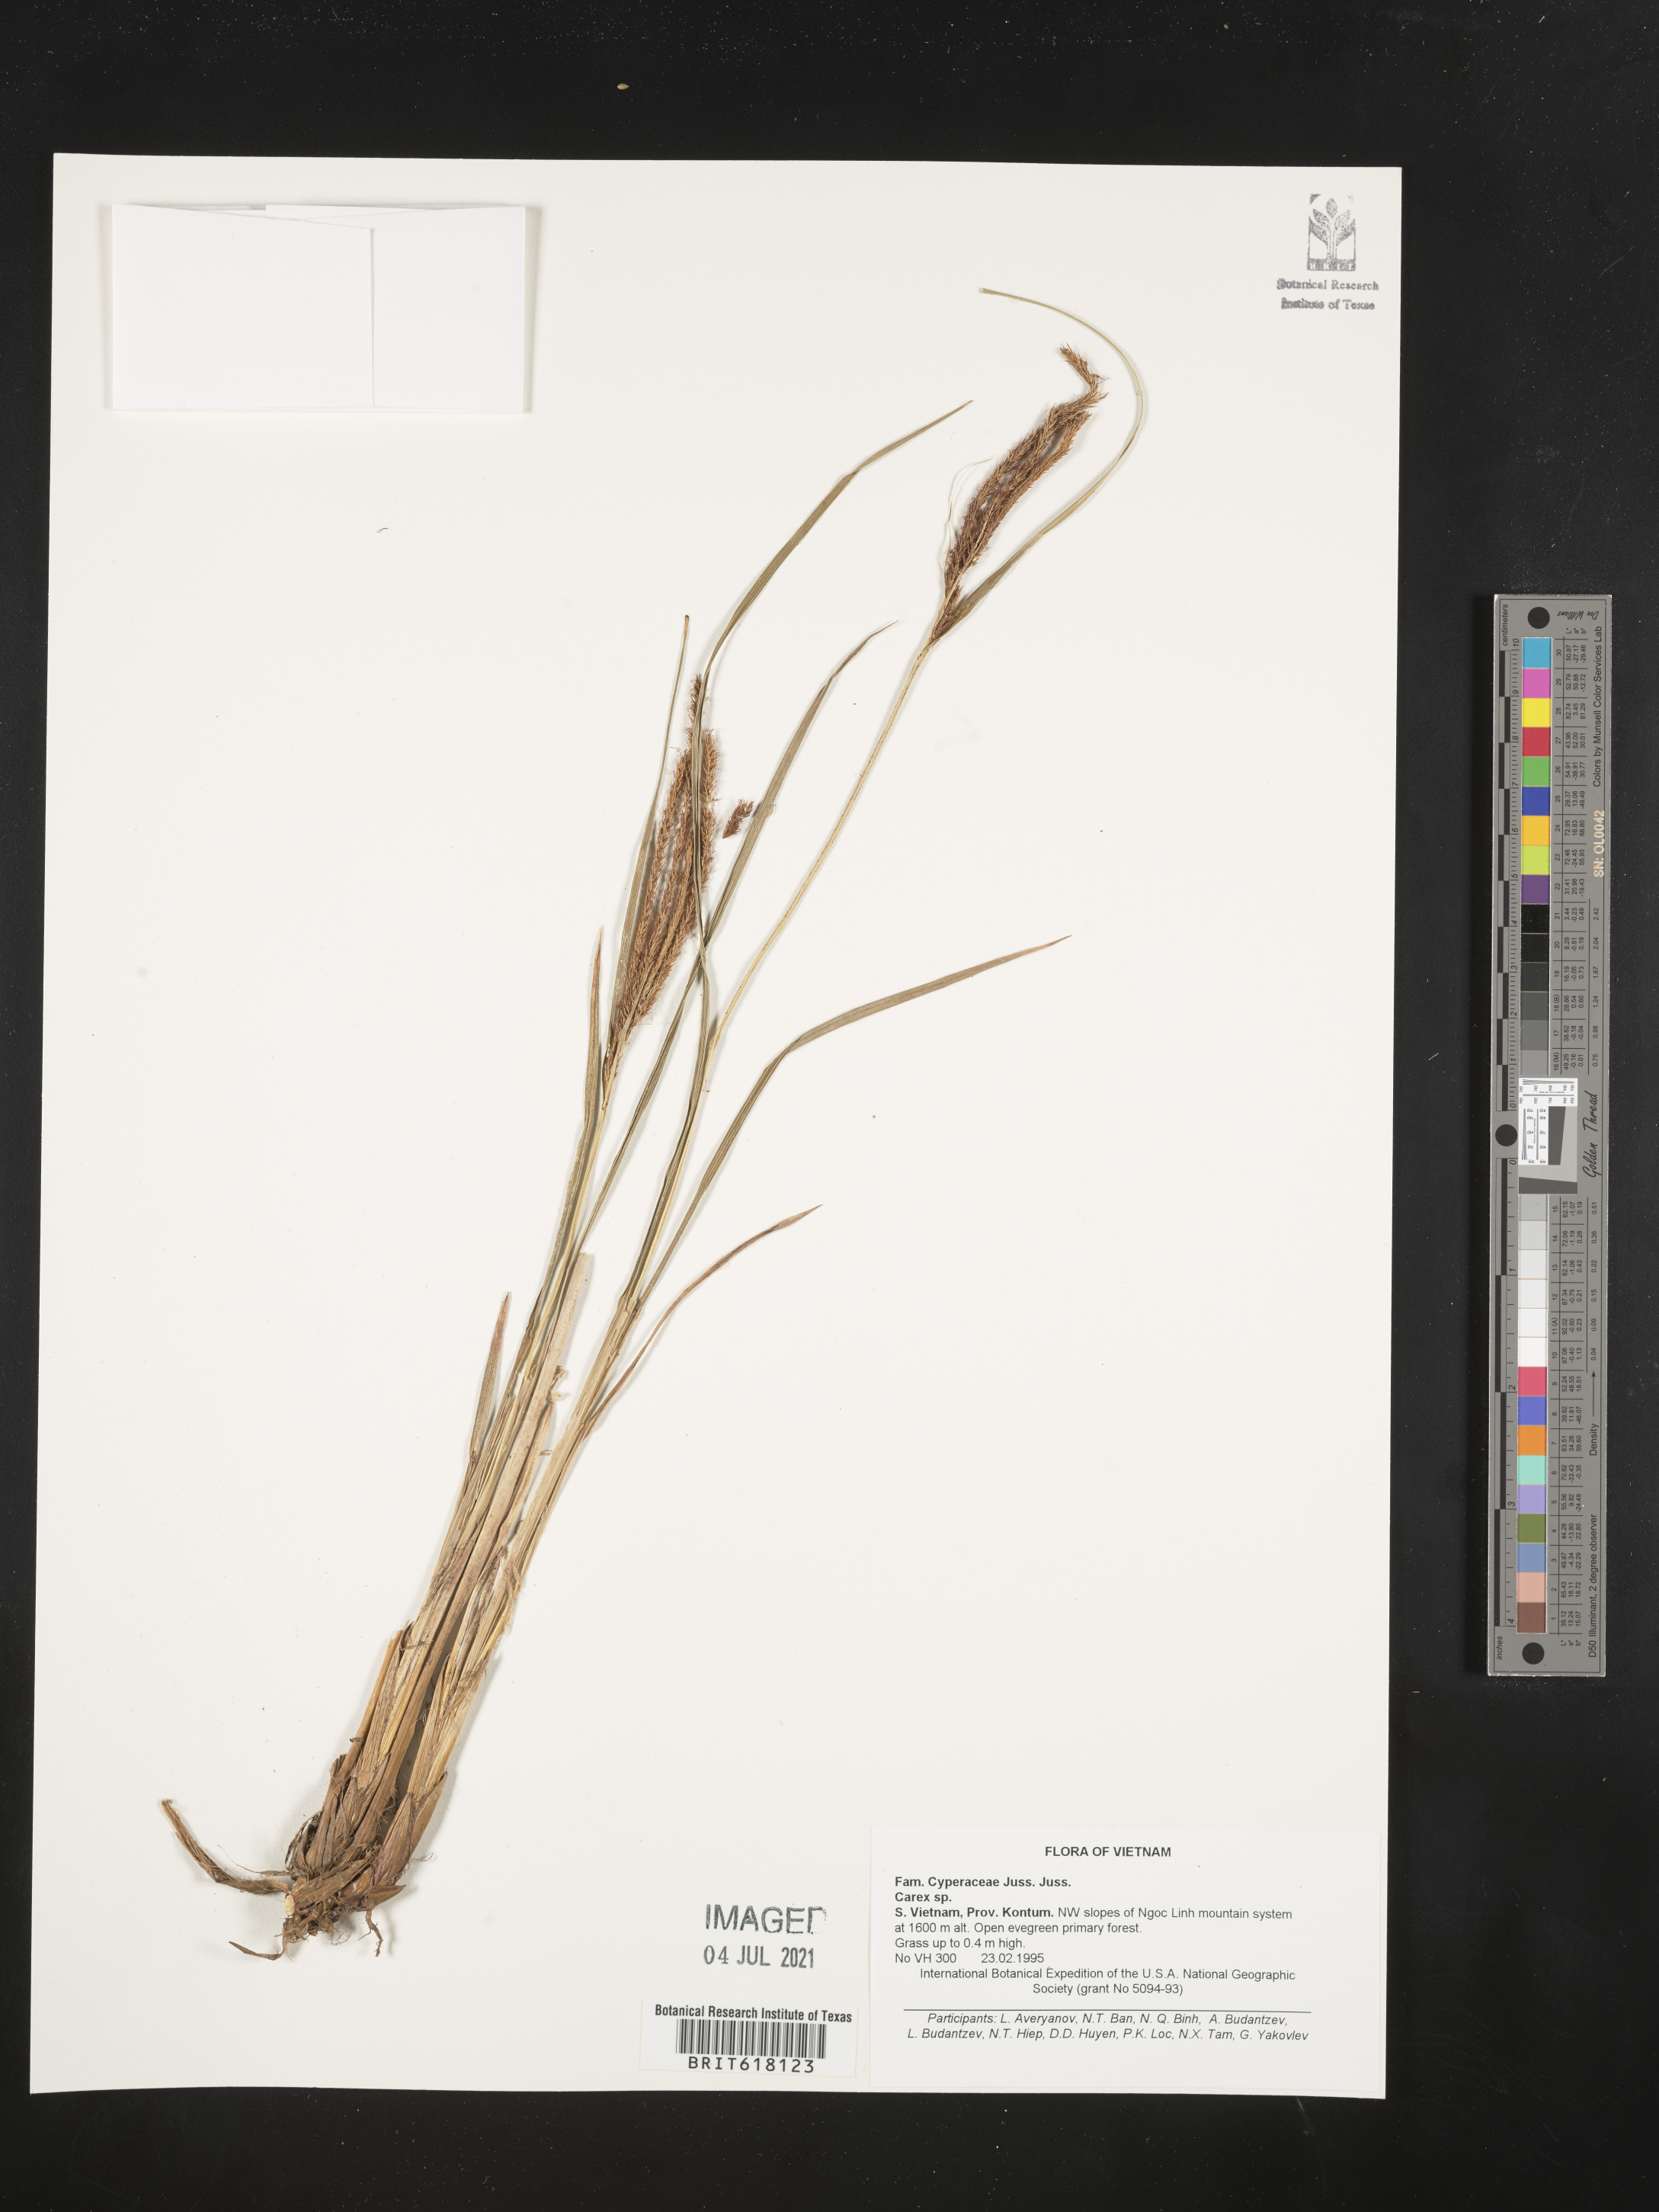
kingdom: Plantae
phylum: Tracheophyta
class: Liliopsida
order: Poales
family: Cyperaceae
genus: Carex
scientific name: Carex
